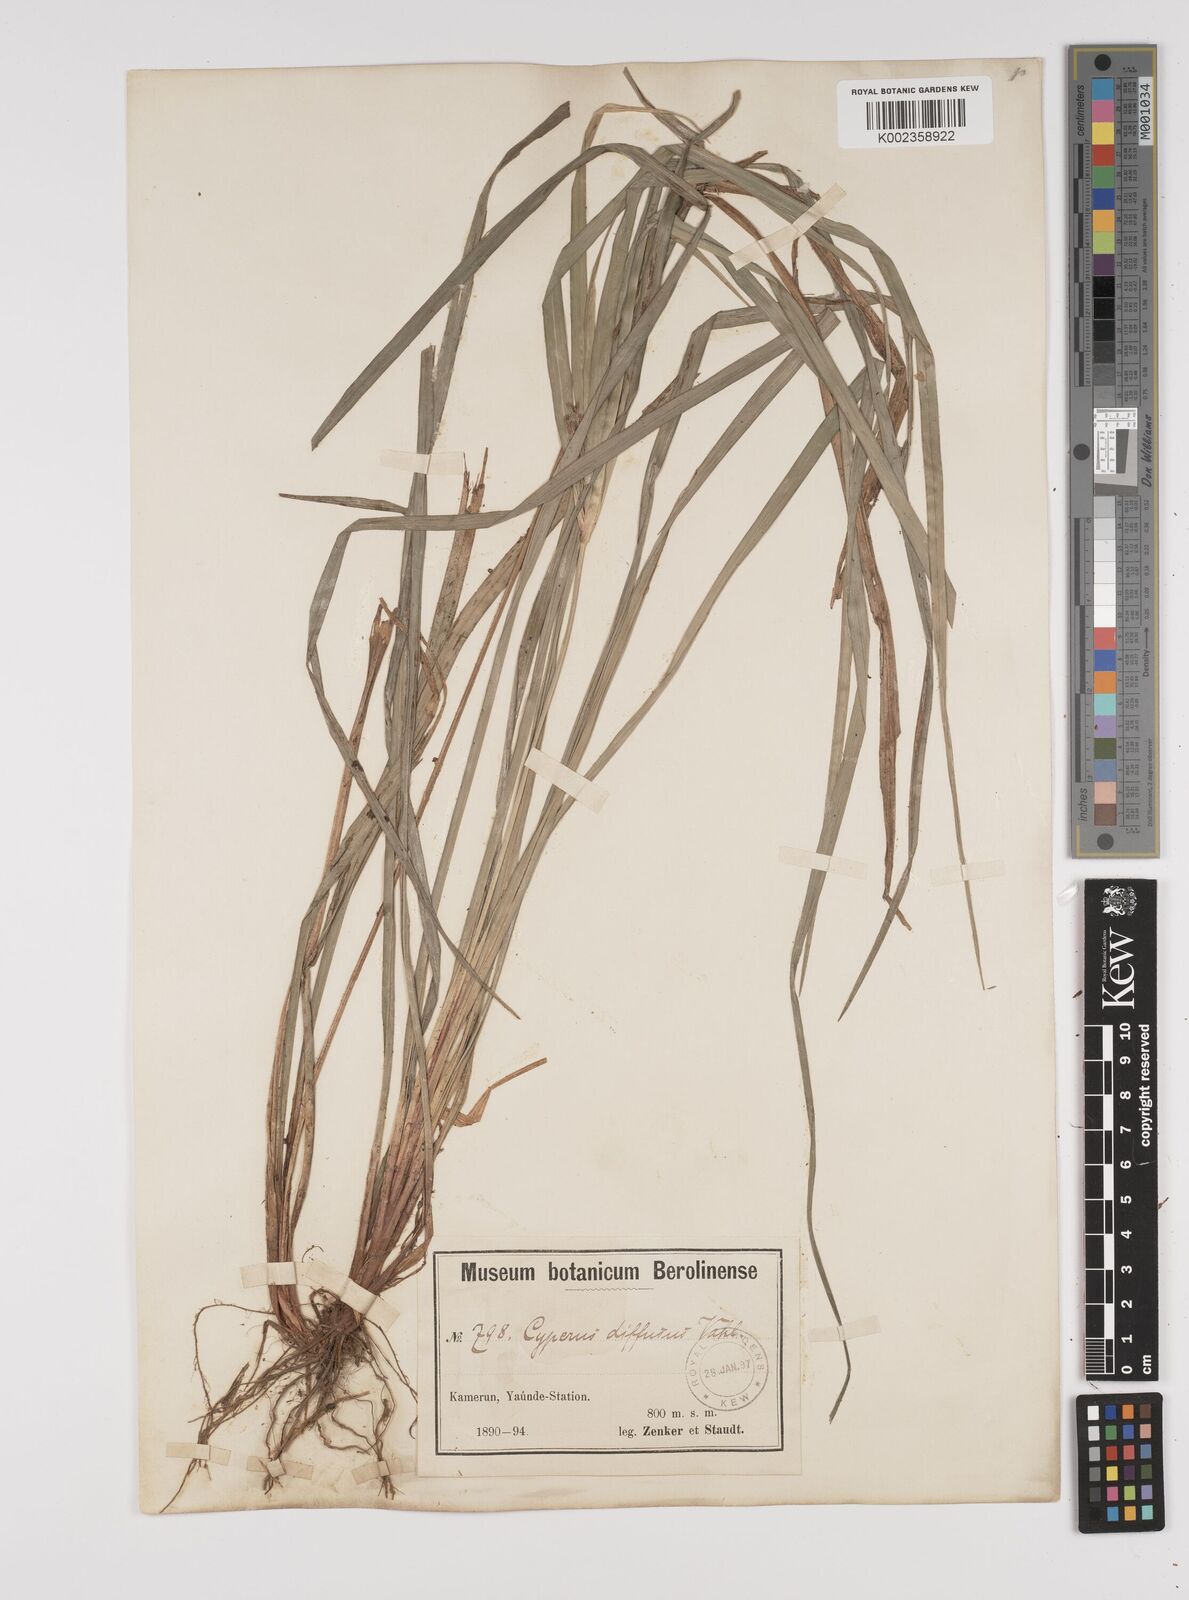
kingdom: Plantae
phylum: Tracheophyta
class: Liliopsida
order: Poales
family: Cyperaceae
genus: Cyperus
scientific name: Cyperus buchholzii
